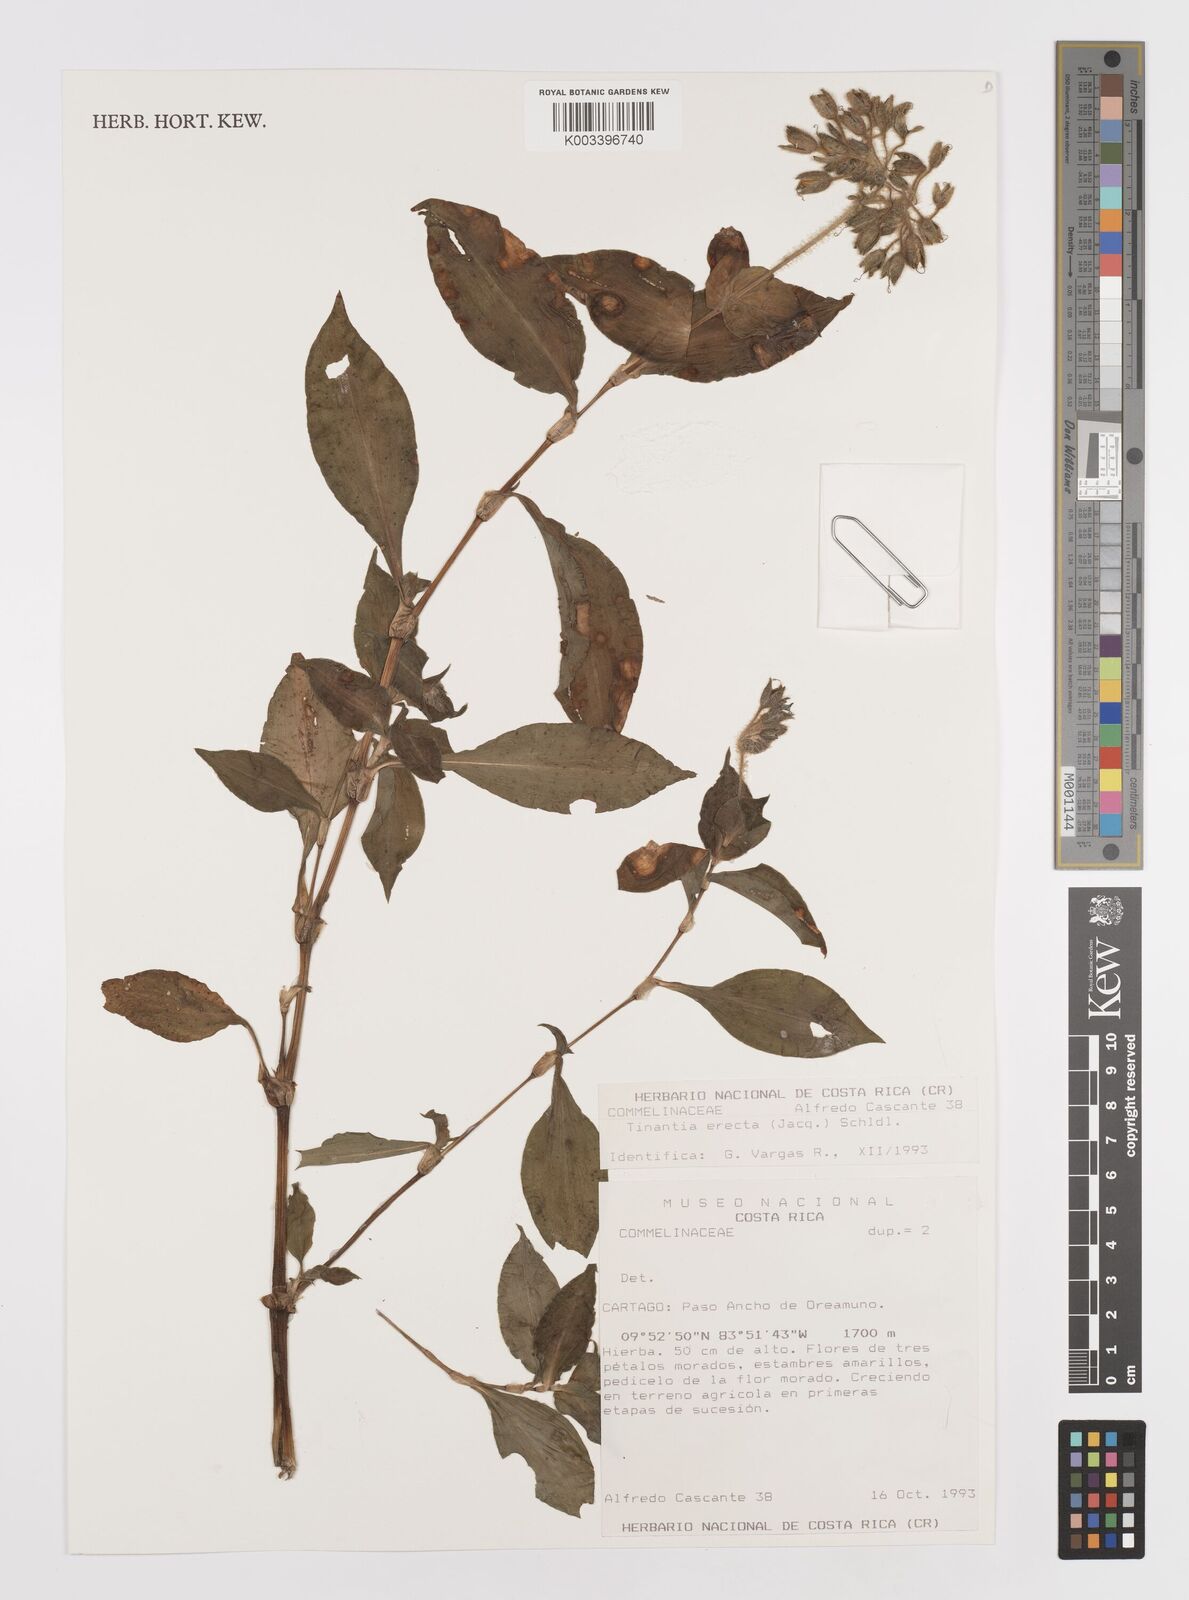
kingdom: Plantae
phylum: Tracheophyta
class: Liliopsida
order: Commelinales
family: Commelinaceae
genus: Tinantia
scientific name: Tinantia erecta
